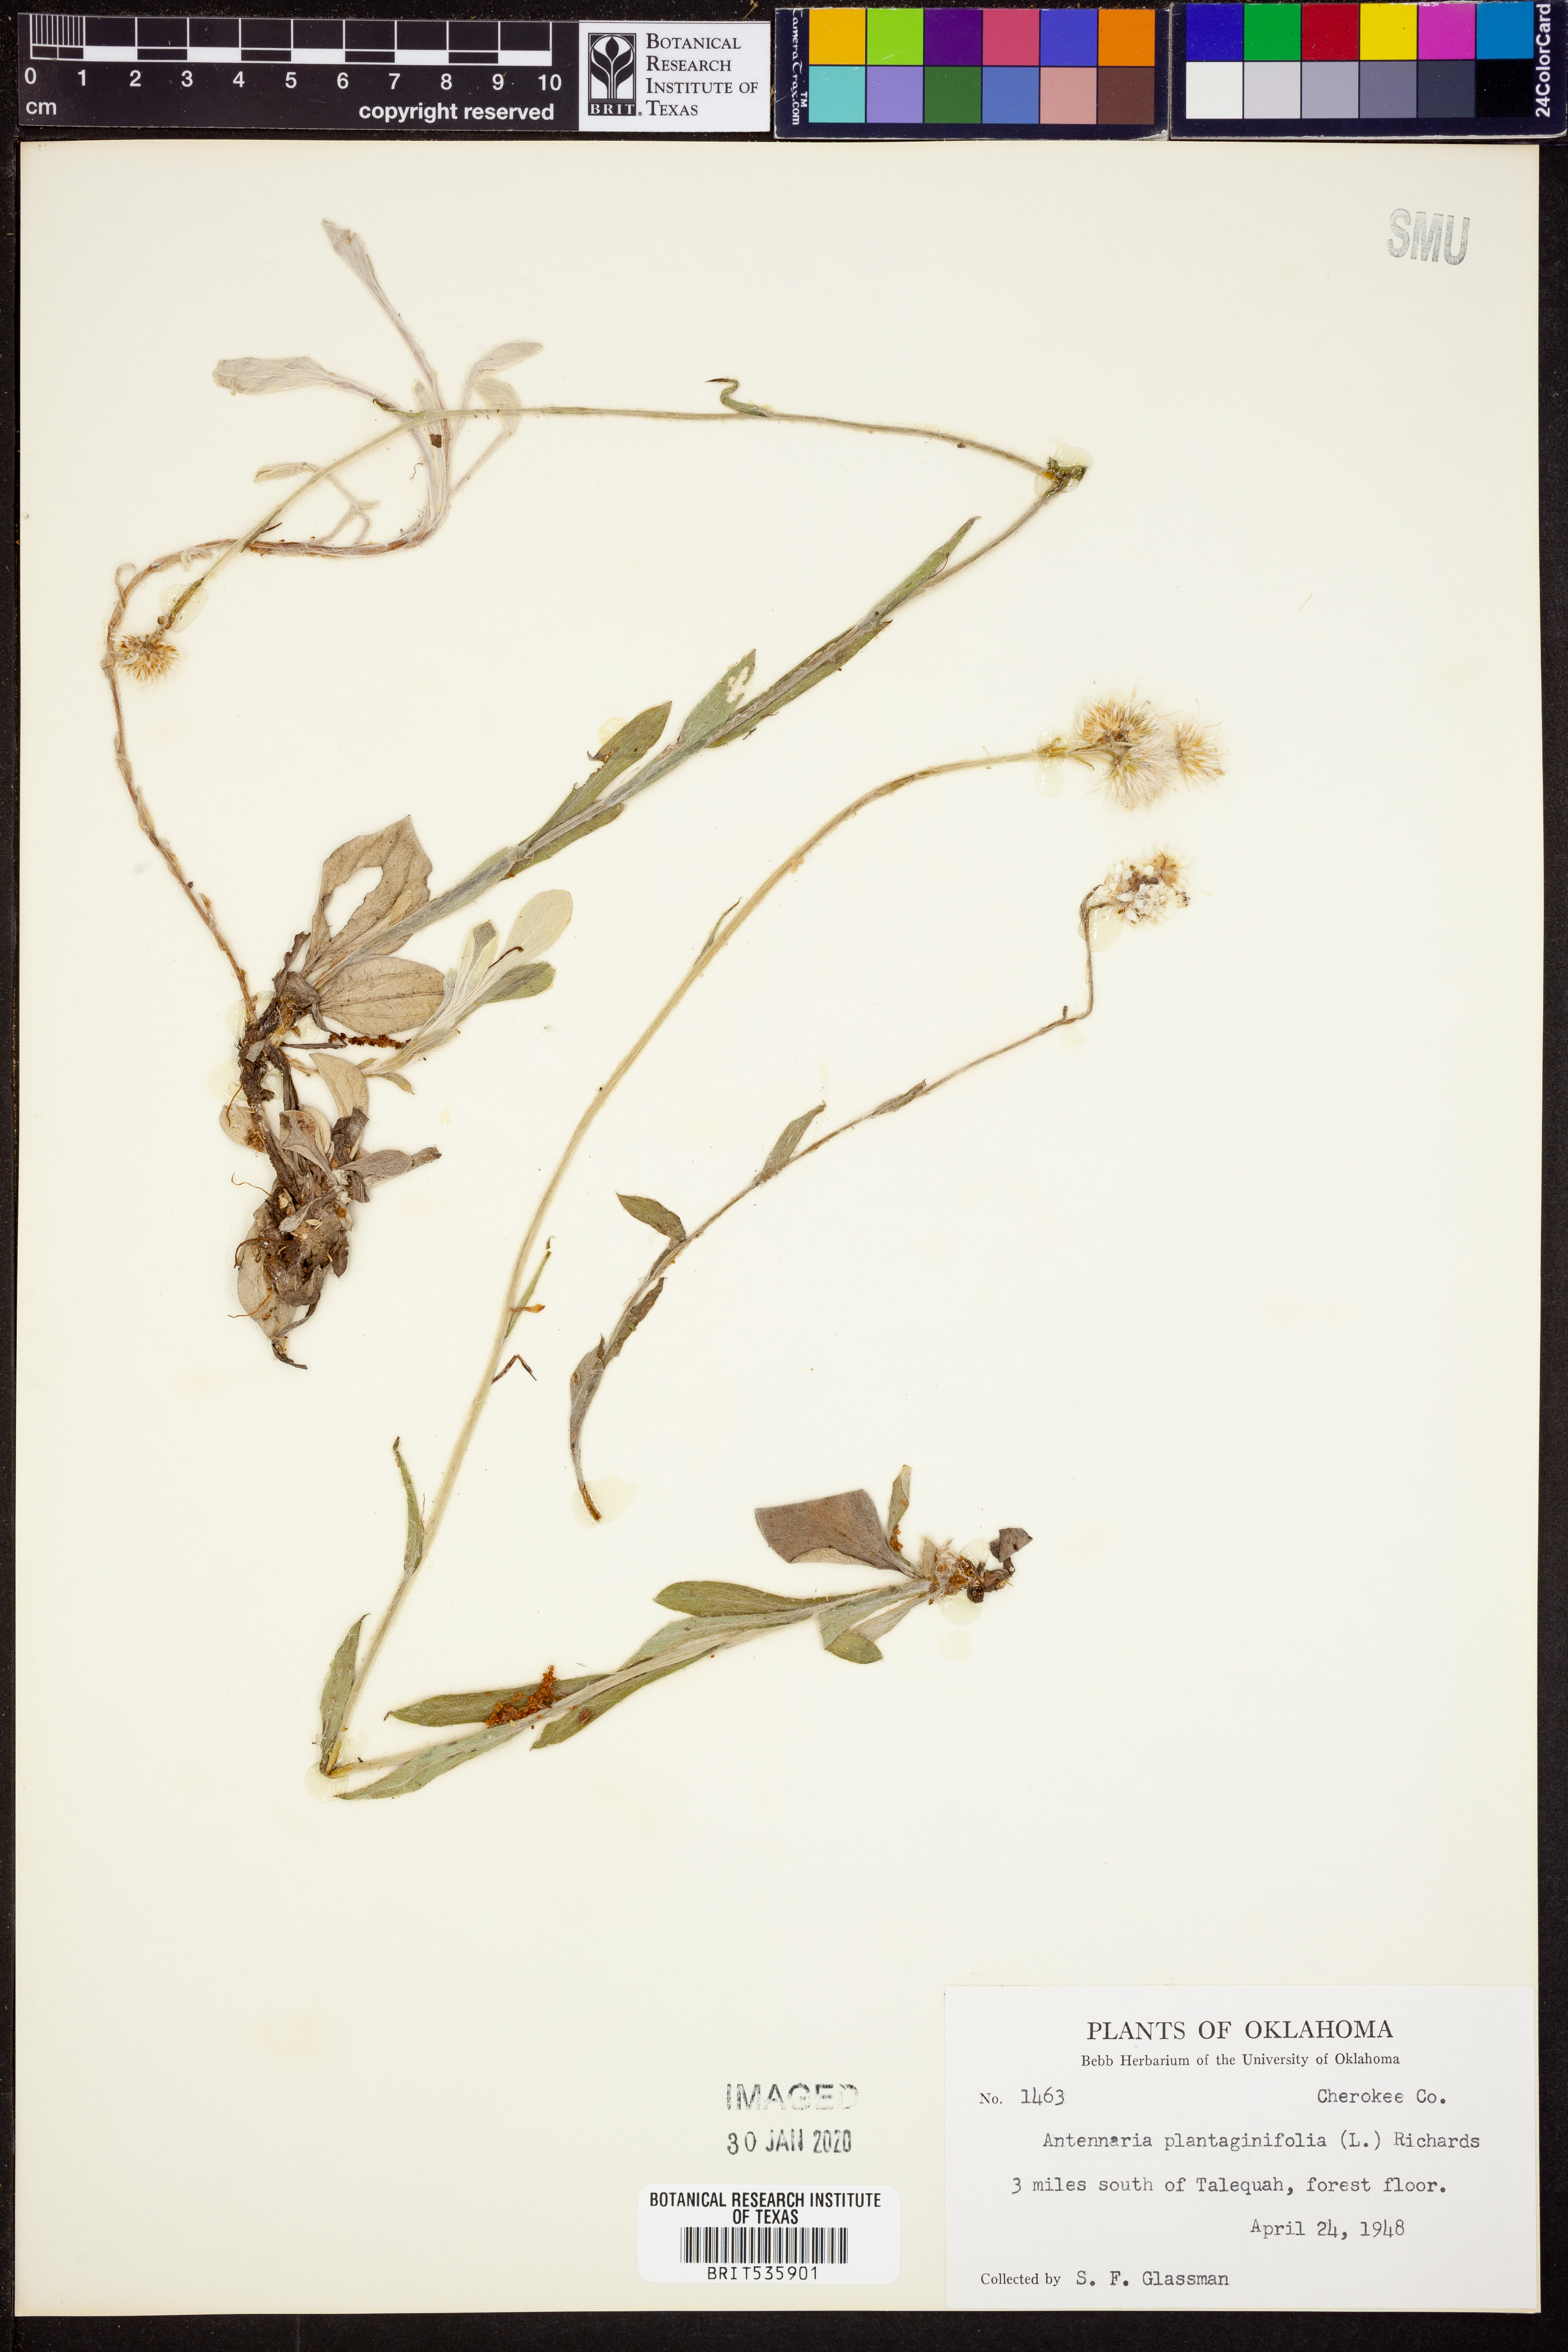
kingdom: Plantae
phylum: Tracheophyta
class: Magnoliopsida
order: Asterales
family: Asteraceae
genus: Antennaria
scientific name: Antennaria plantaginifolia
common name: Plantain-leaved pussytoes
